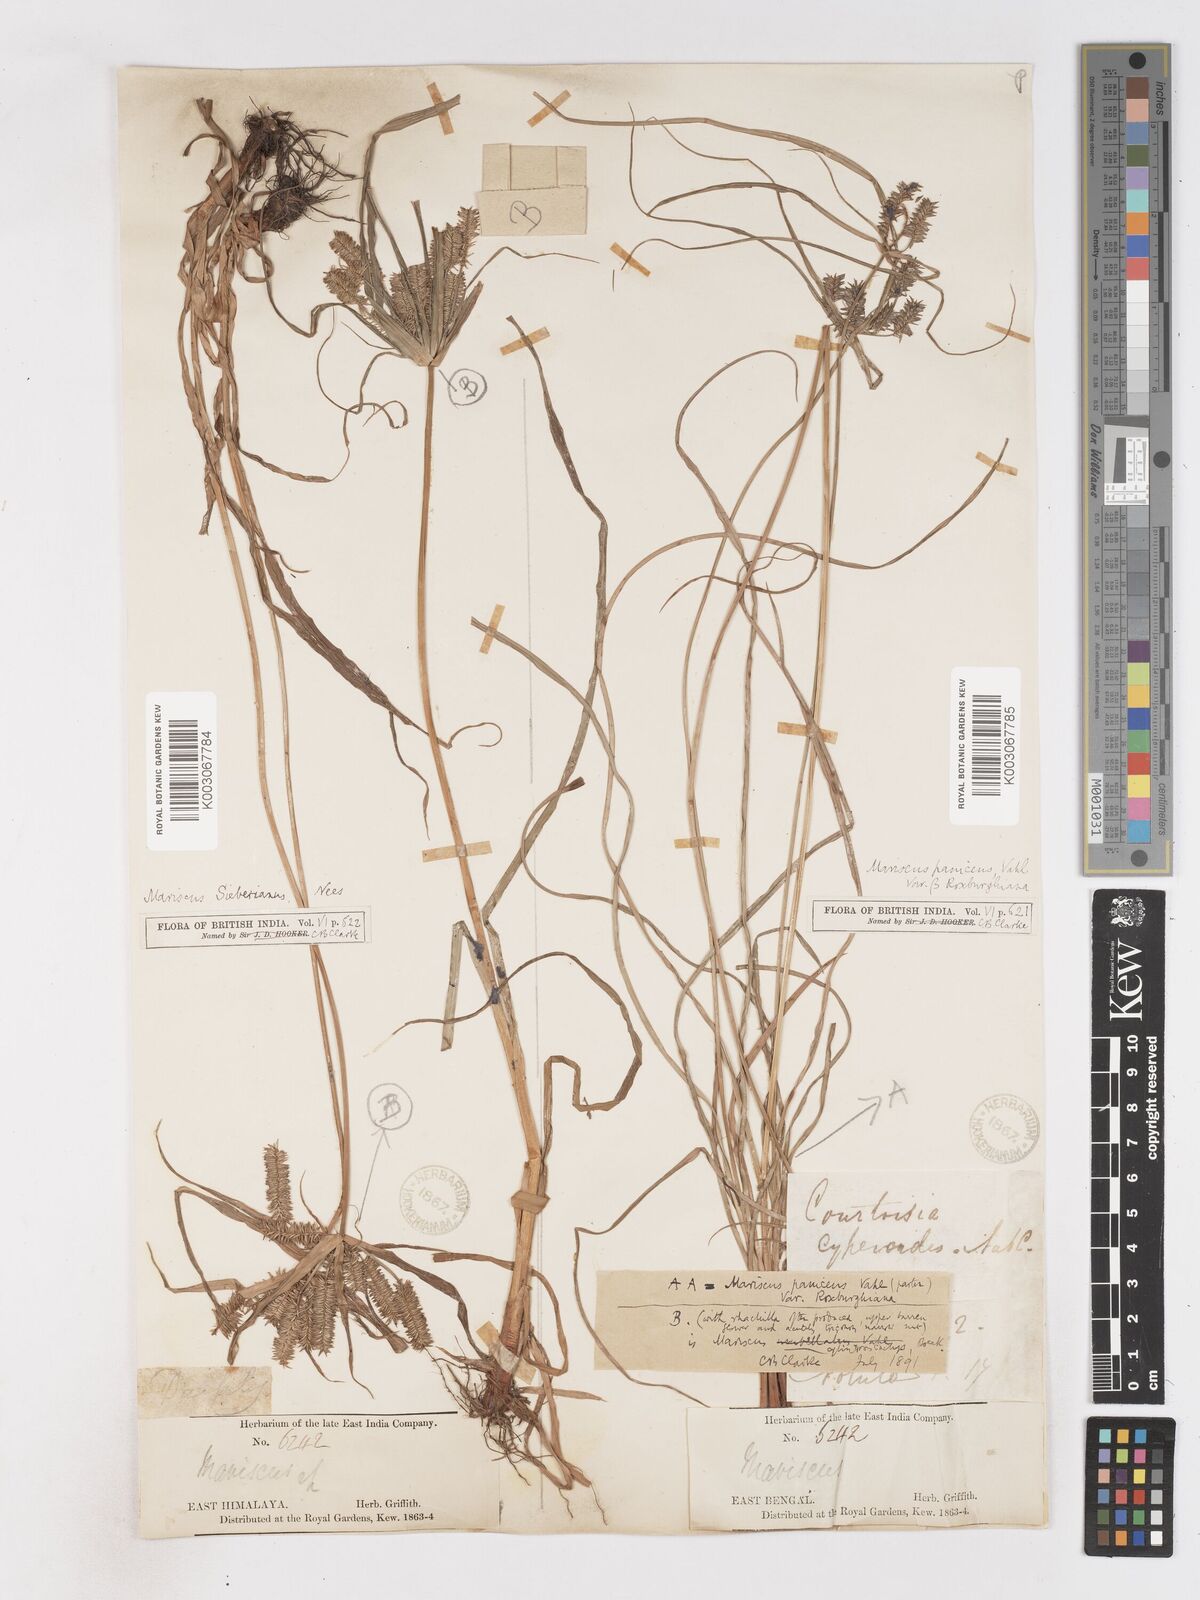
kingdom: Plantae
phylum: Tracheophyta
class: Liliopsida
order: Poales
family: Cyperaceae
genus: Cyperus
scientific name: Cyperus cyperoides
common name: Pacific island flat sedge
